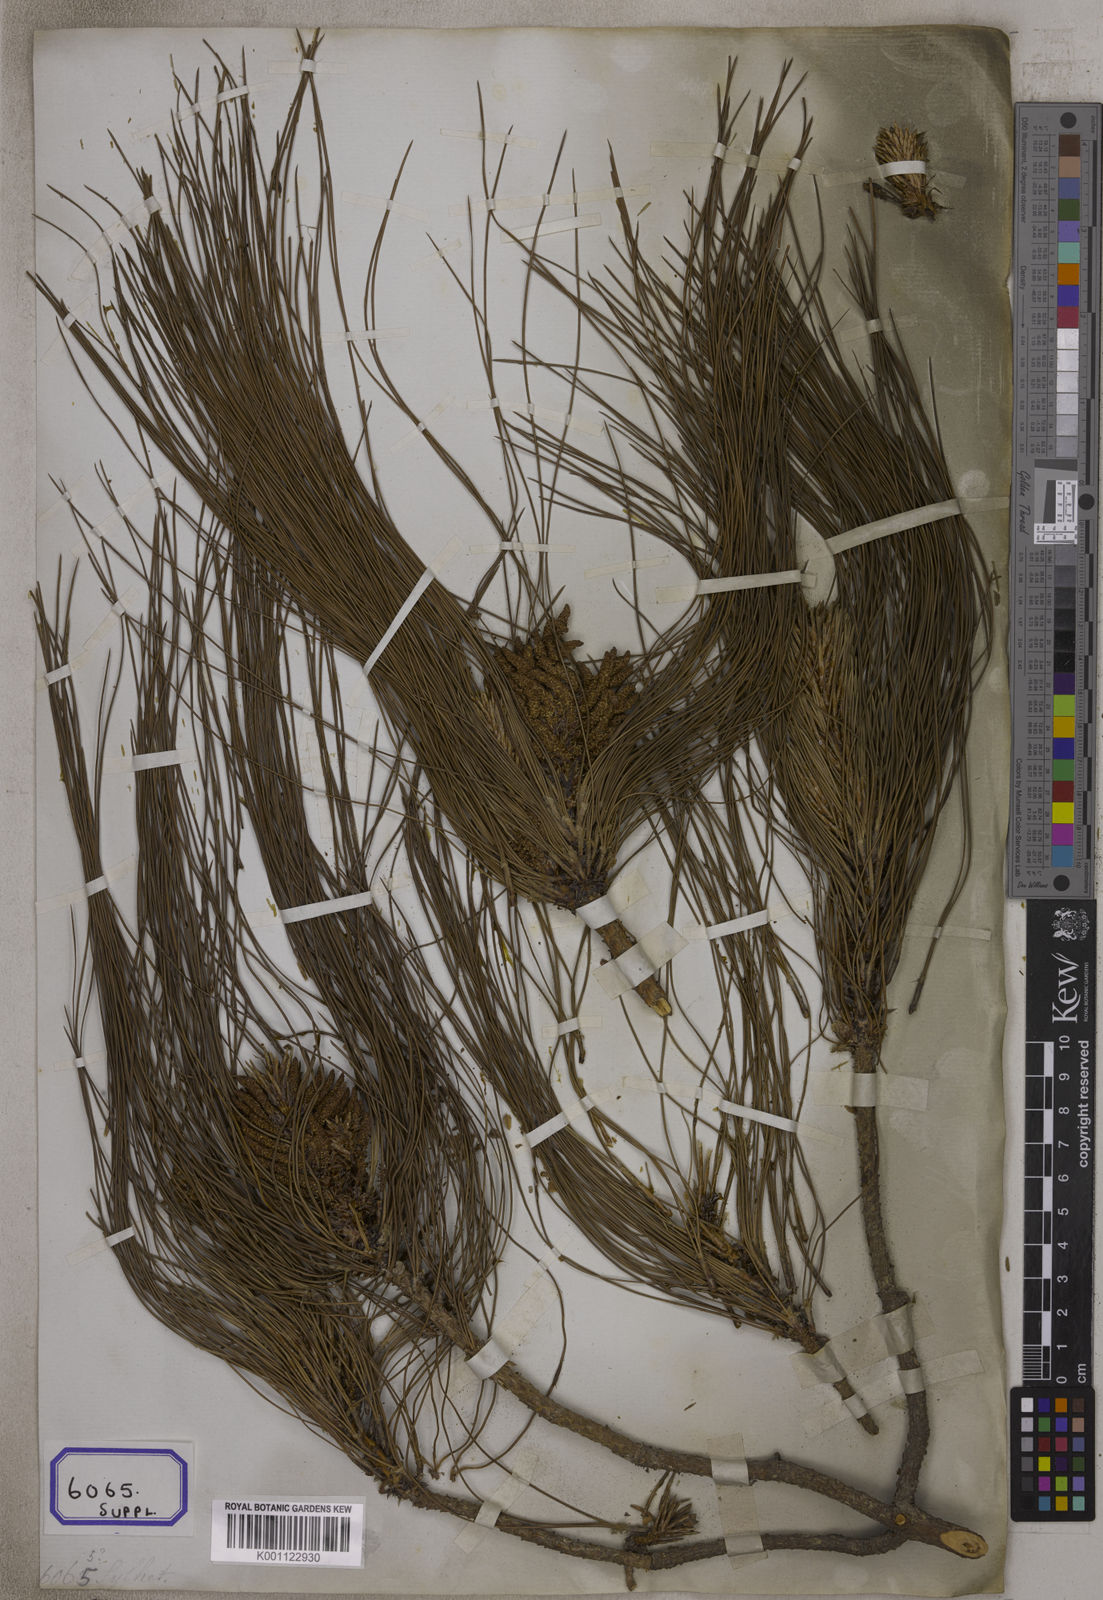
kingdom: Plantae
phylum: Tracheophyta
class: Pinopsida
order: Pinales
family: Pinaceae
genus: Pinus
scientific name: Pinus
